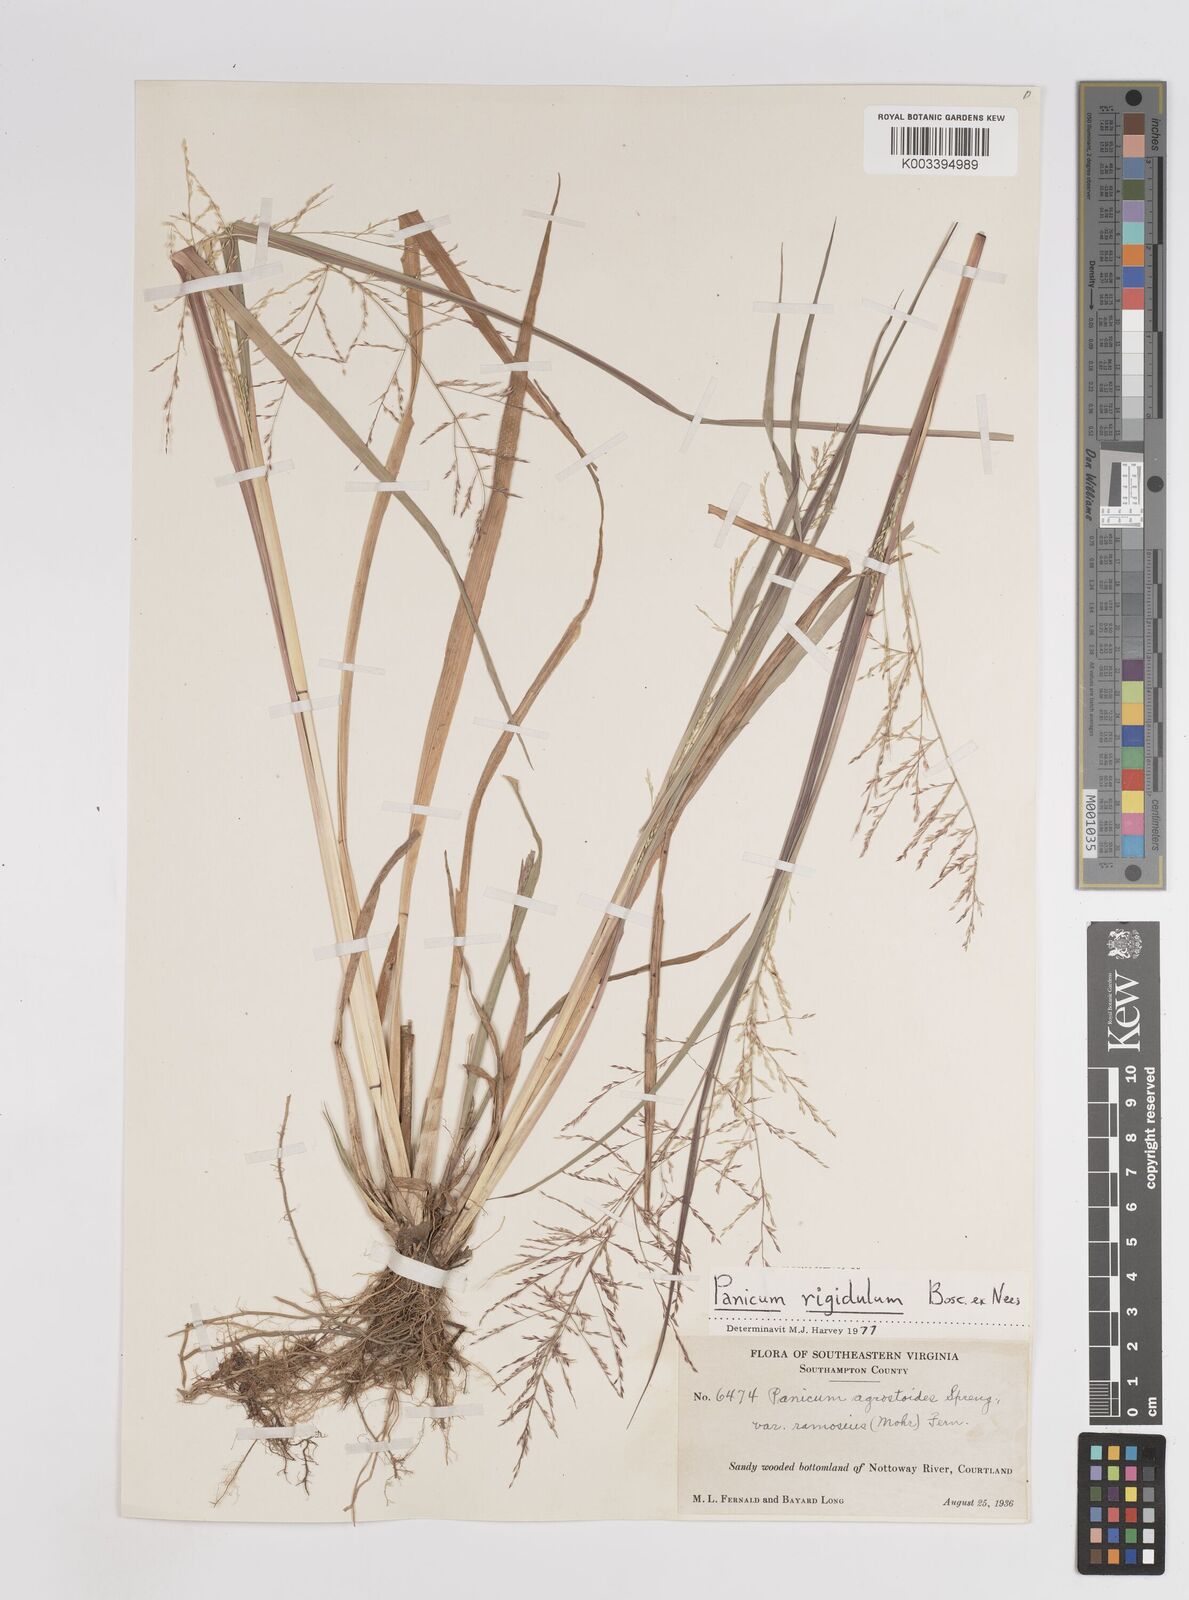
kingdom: Plantae
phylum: Tracheophyta
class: Liliopsida
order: Poales
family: Poaceae
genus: Coleataenia
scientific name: Coleataenia rigidula
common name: Redtop panicgrass
